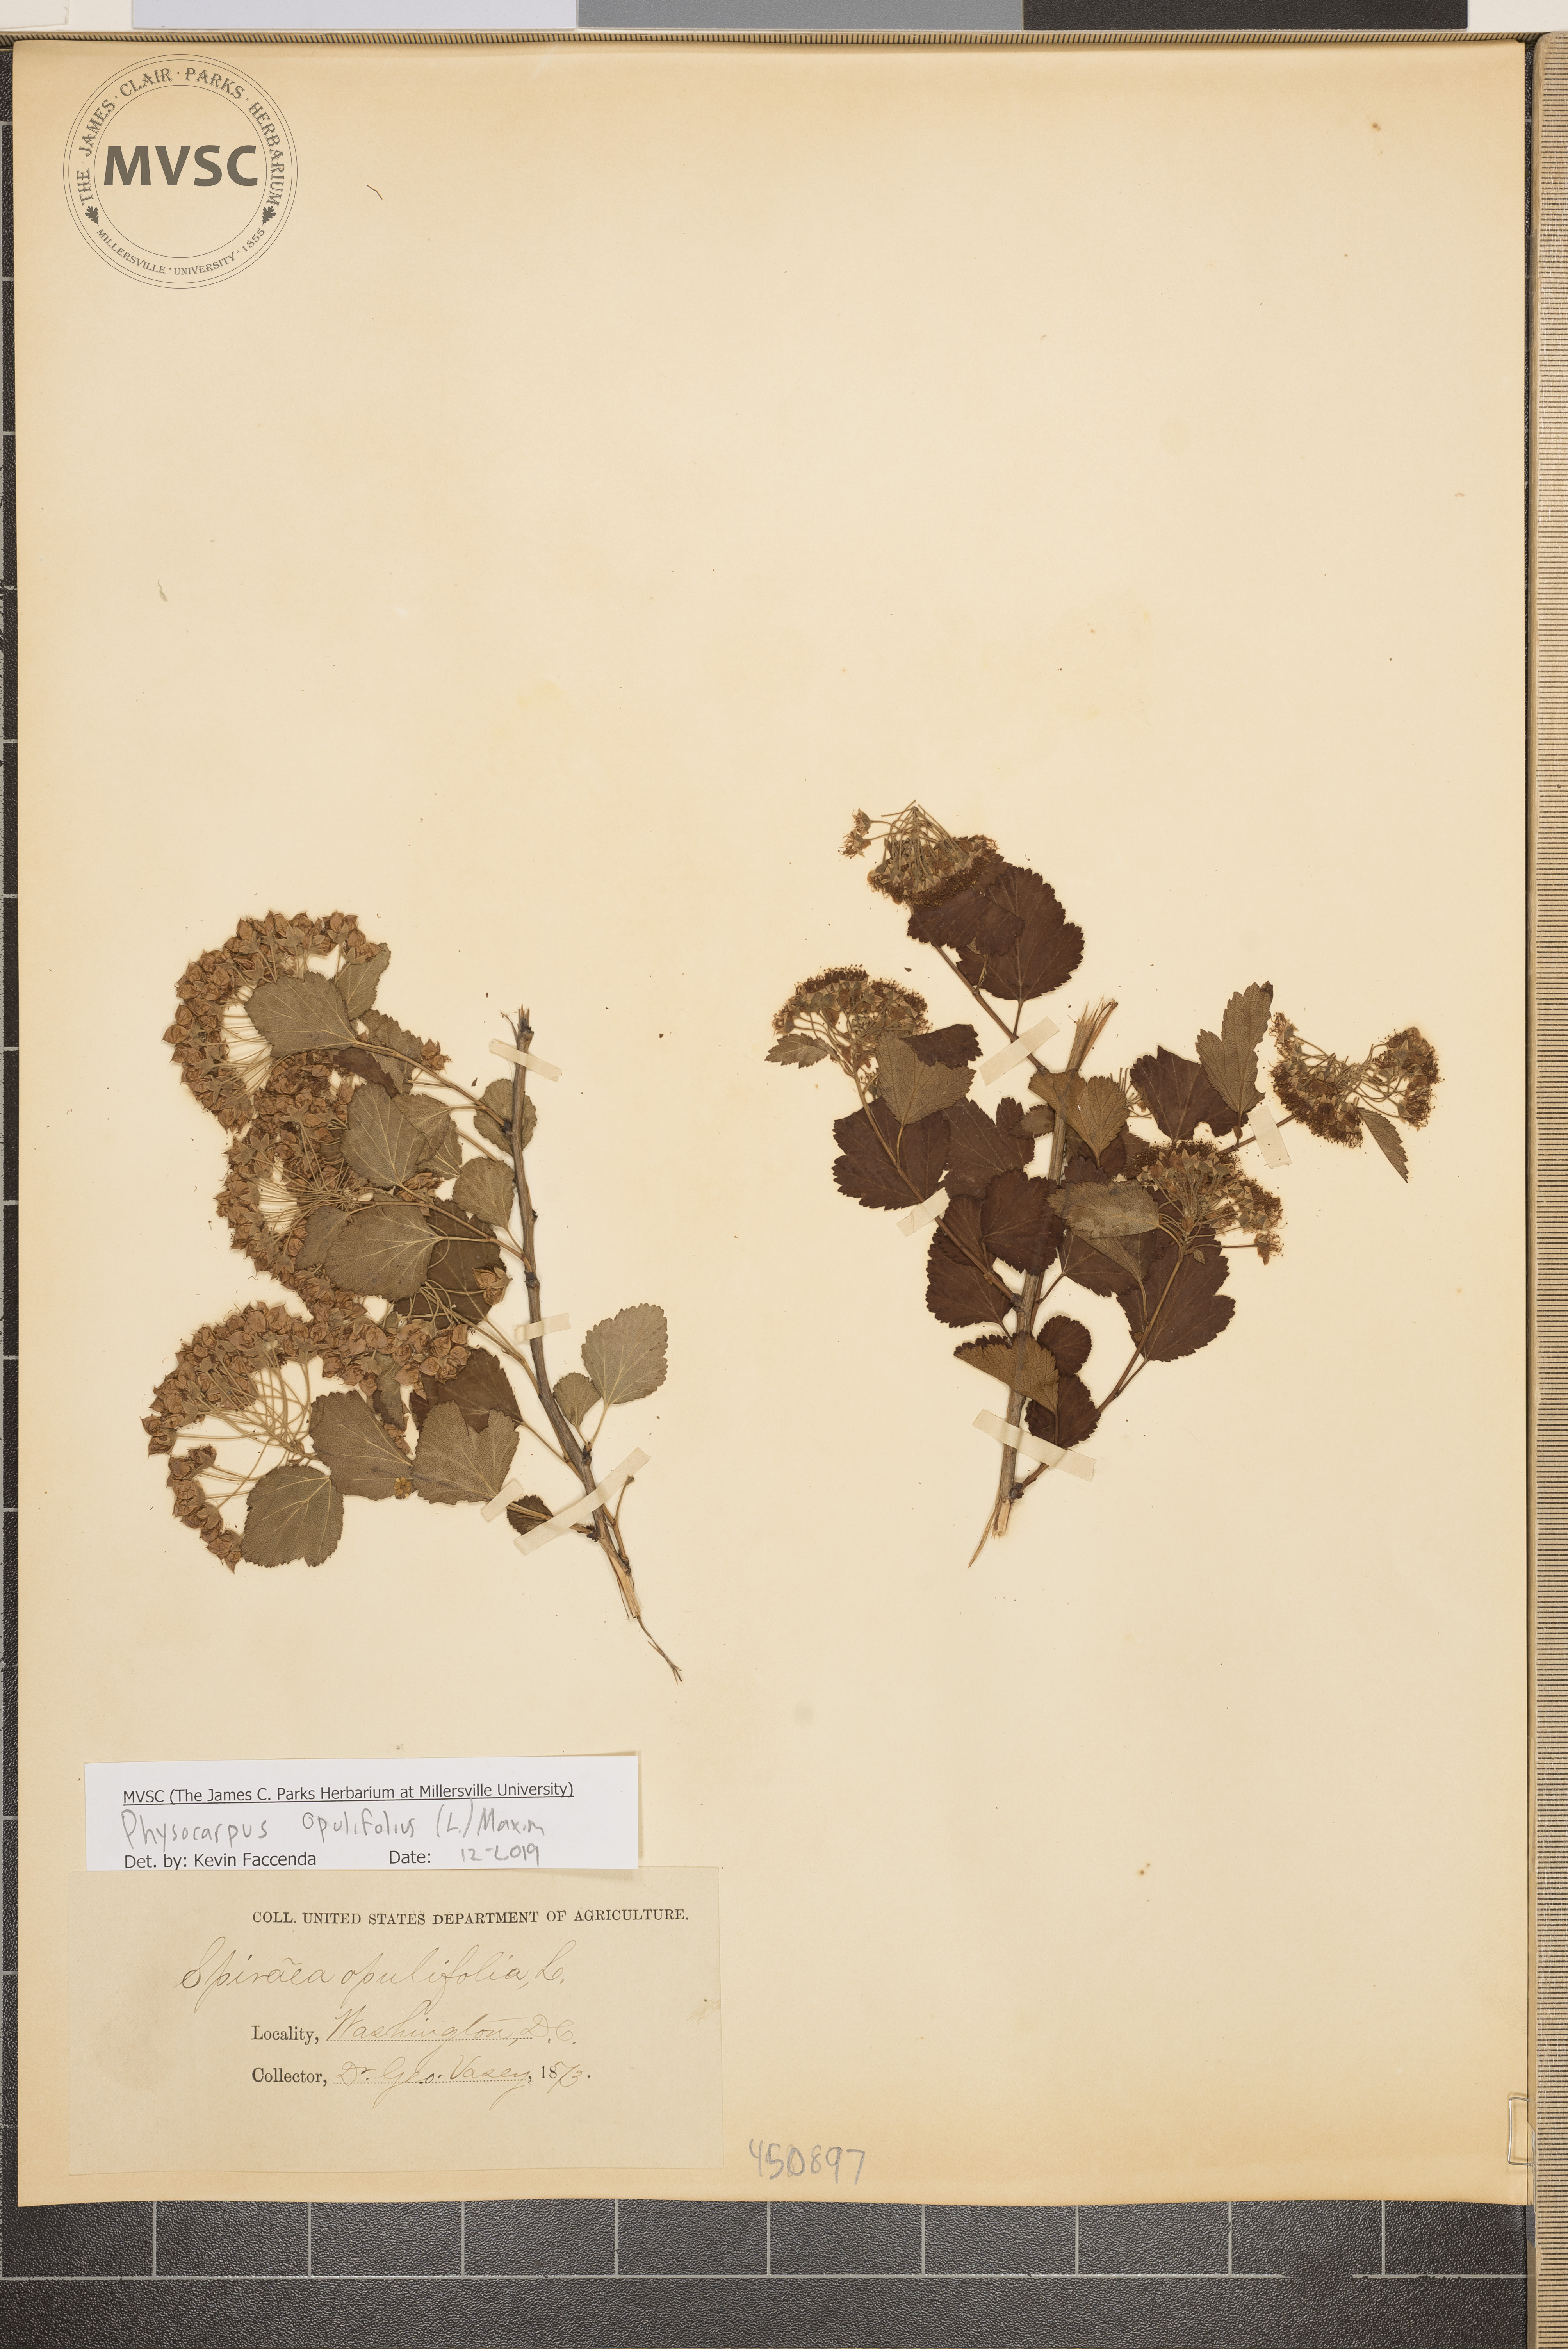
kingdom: Plantae
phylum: Tracheophyta
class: Magnoliopsida
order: Rosales
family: Rosaceae
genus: Physocarpus
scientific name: Physocarpus opulifolius
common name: Ninebark
